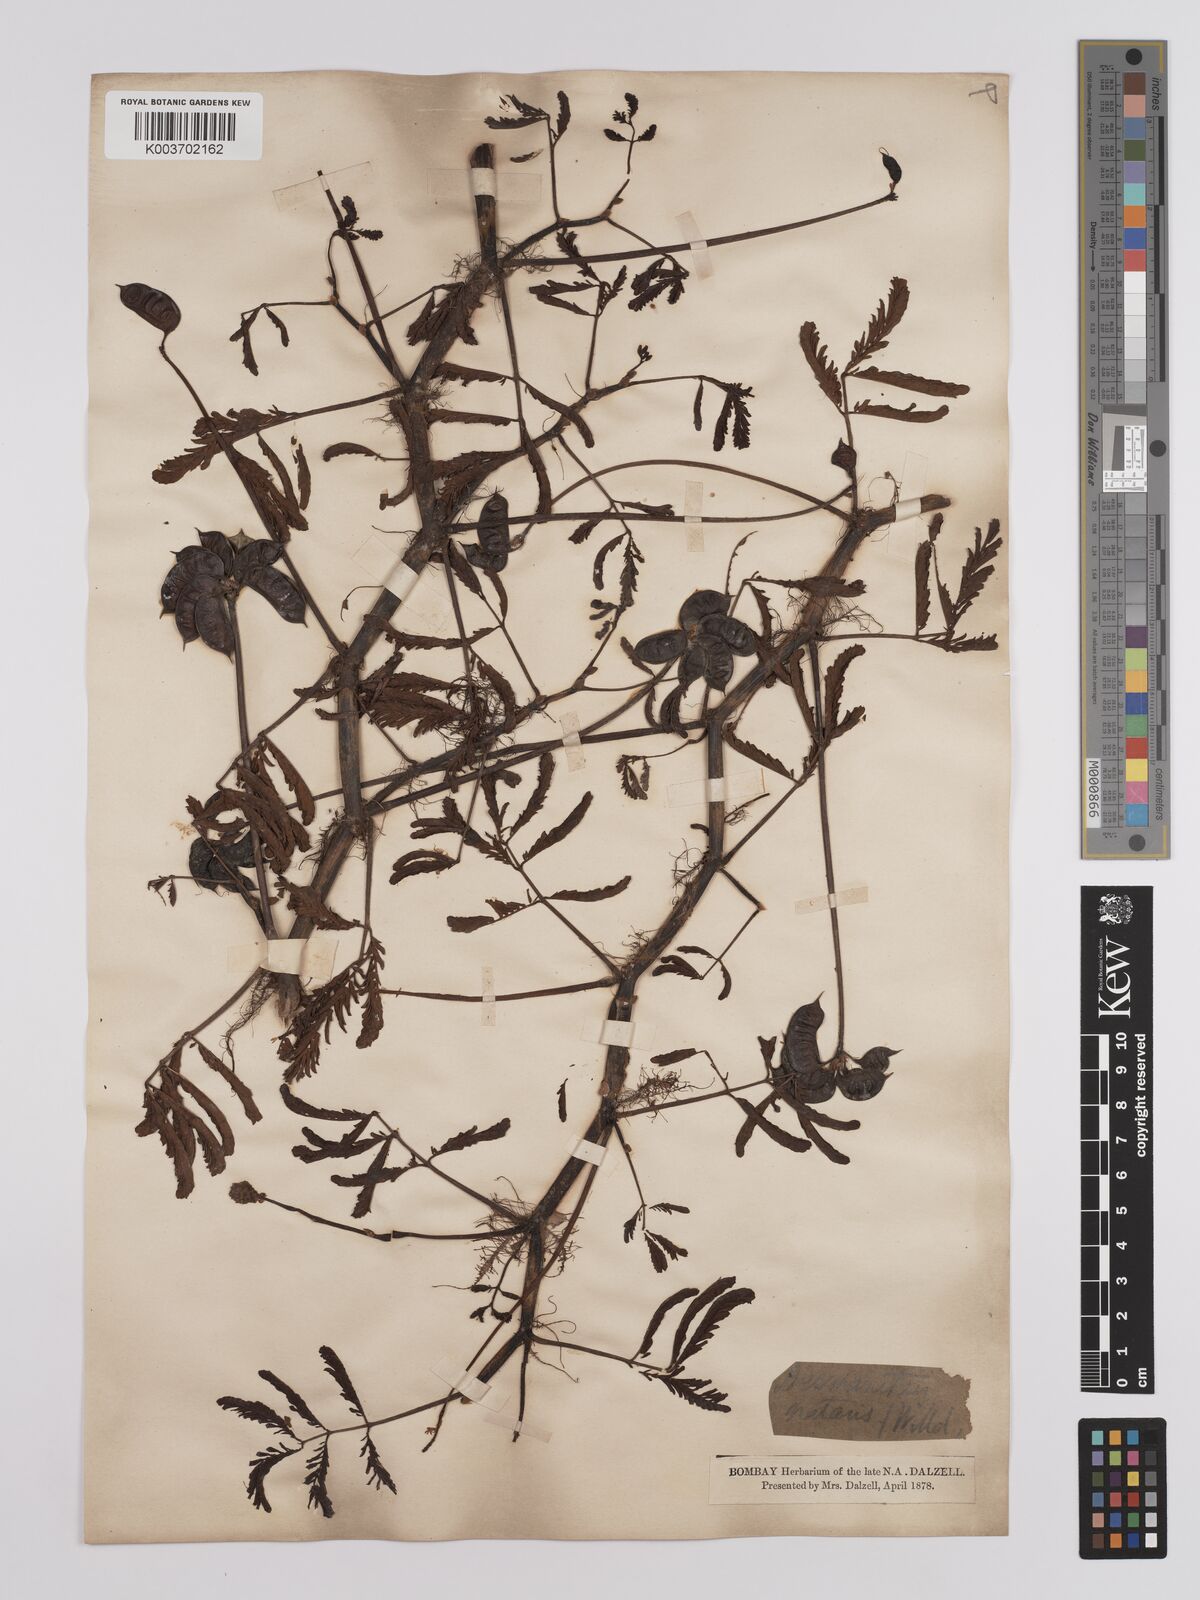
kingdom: Plantae
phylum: Tracheophyta
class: Magnoliopsida
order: Fabales
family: Fabaceae
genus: Neptunia
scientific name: Neptunia prostrata
